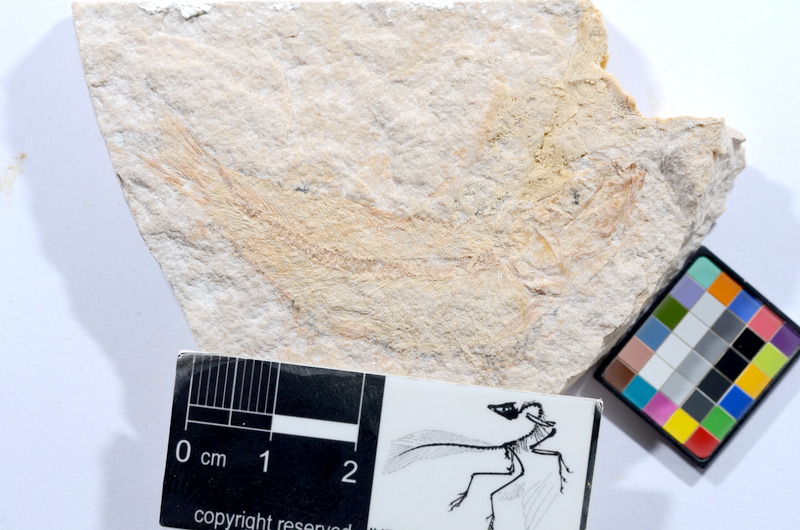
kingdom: Animalia
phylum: Chordata
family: Ascalaboidae
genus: Tharsis
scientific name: Tharsis dubius
